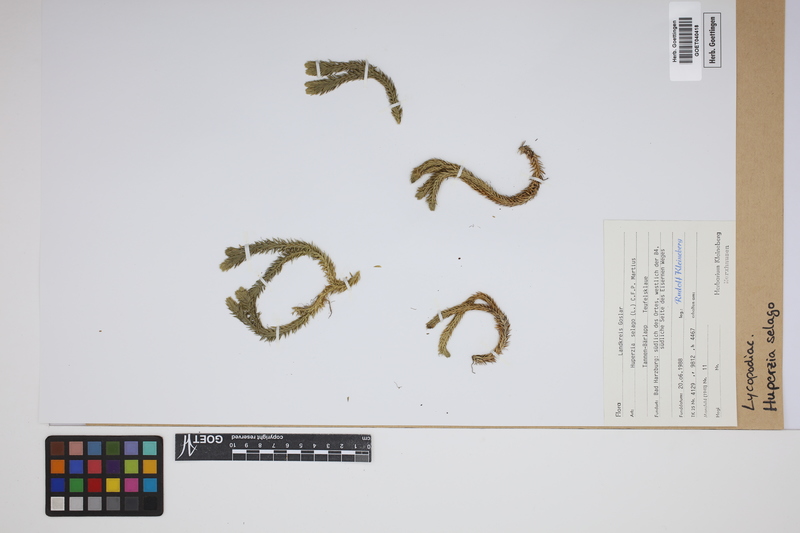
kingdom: Plantae
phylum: Tracheophyta
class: Lycopodiopsida
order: Lycopodiales
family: Lycopodiaceae
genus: Huperzia
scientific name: Huperzia selago
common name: Northern firmoss
